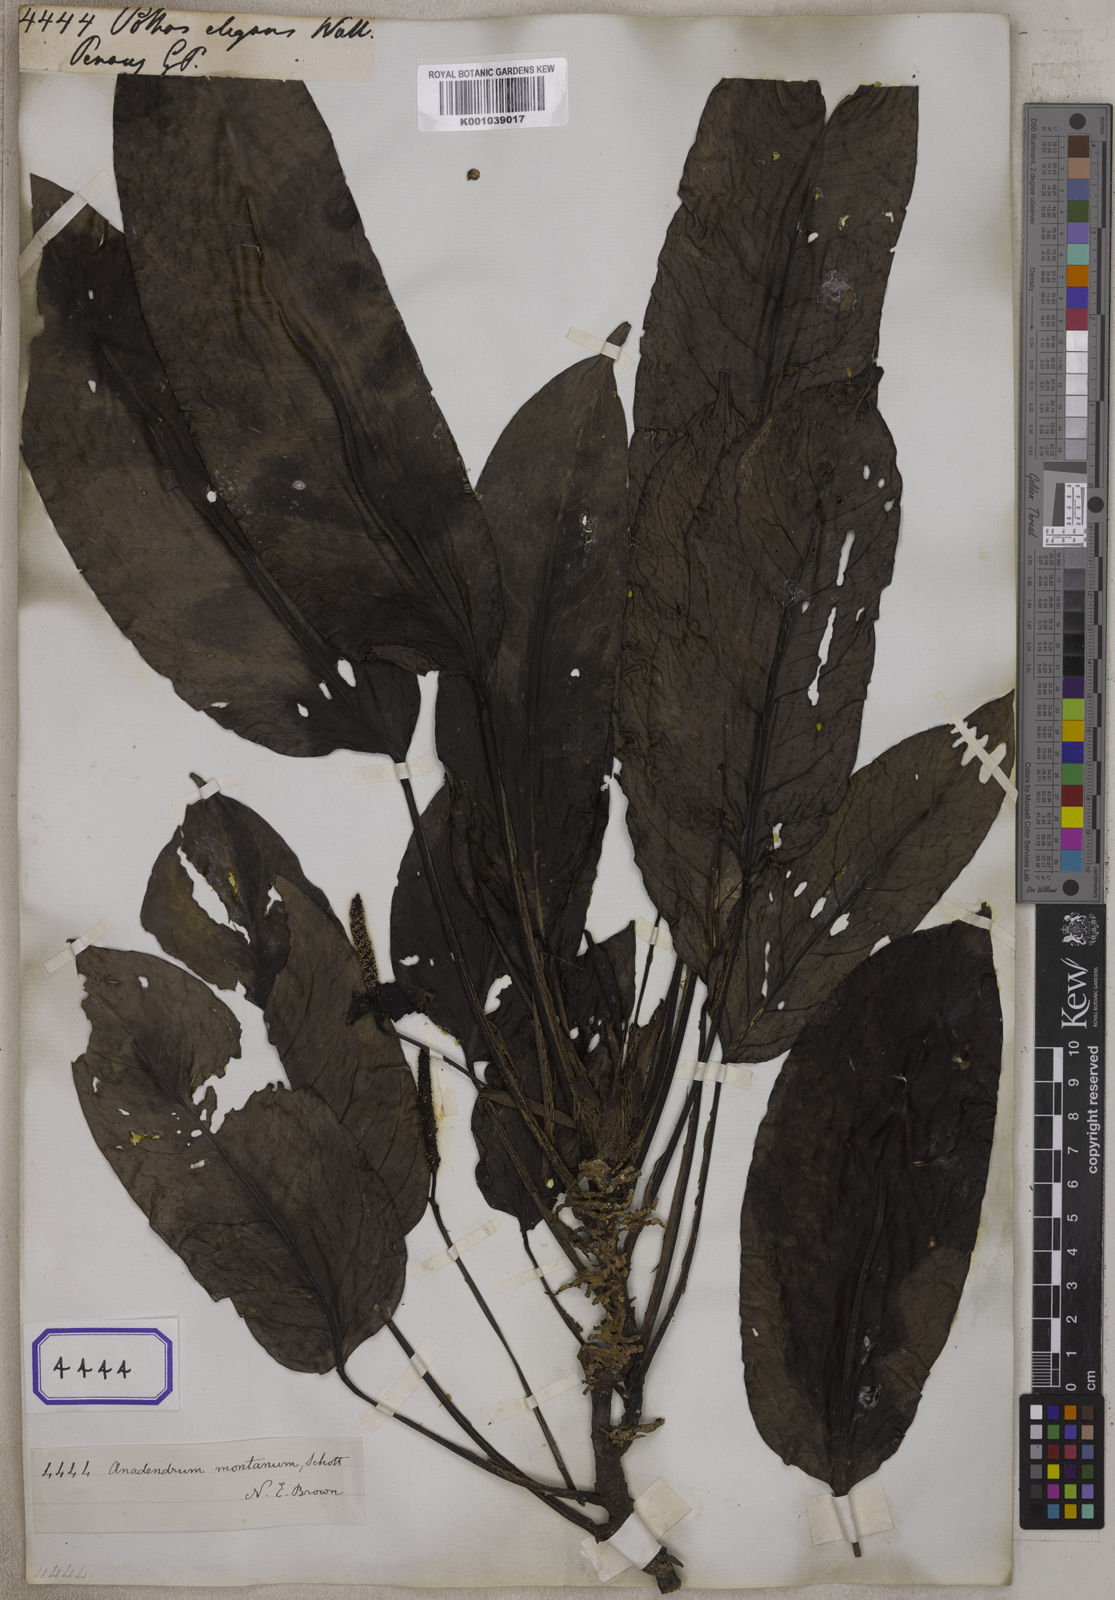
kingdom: Plantae
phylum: Tracheophyta
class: Liliopsida
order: Alismatales
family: Araceae
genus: Pothos
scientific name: Pothos
